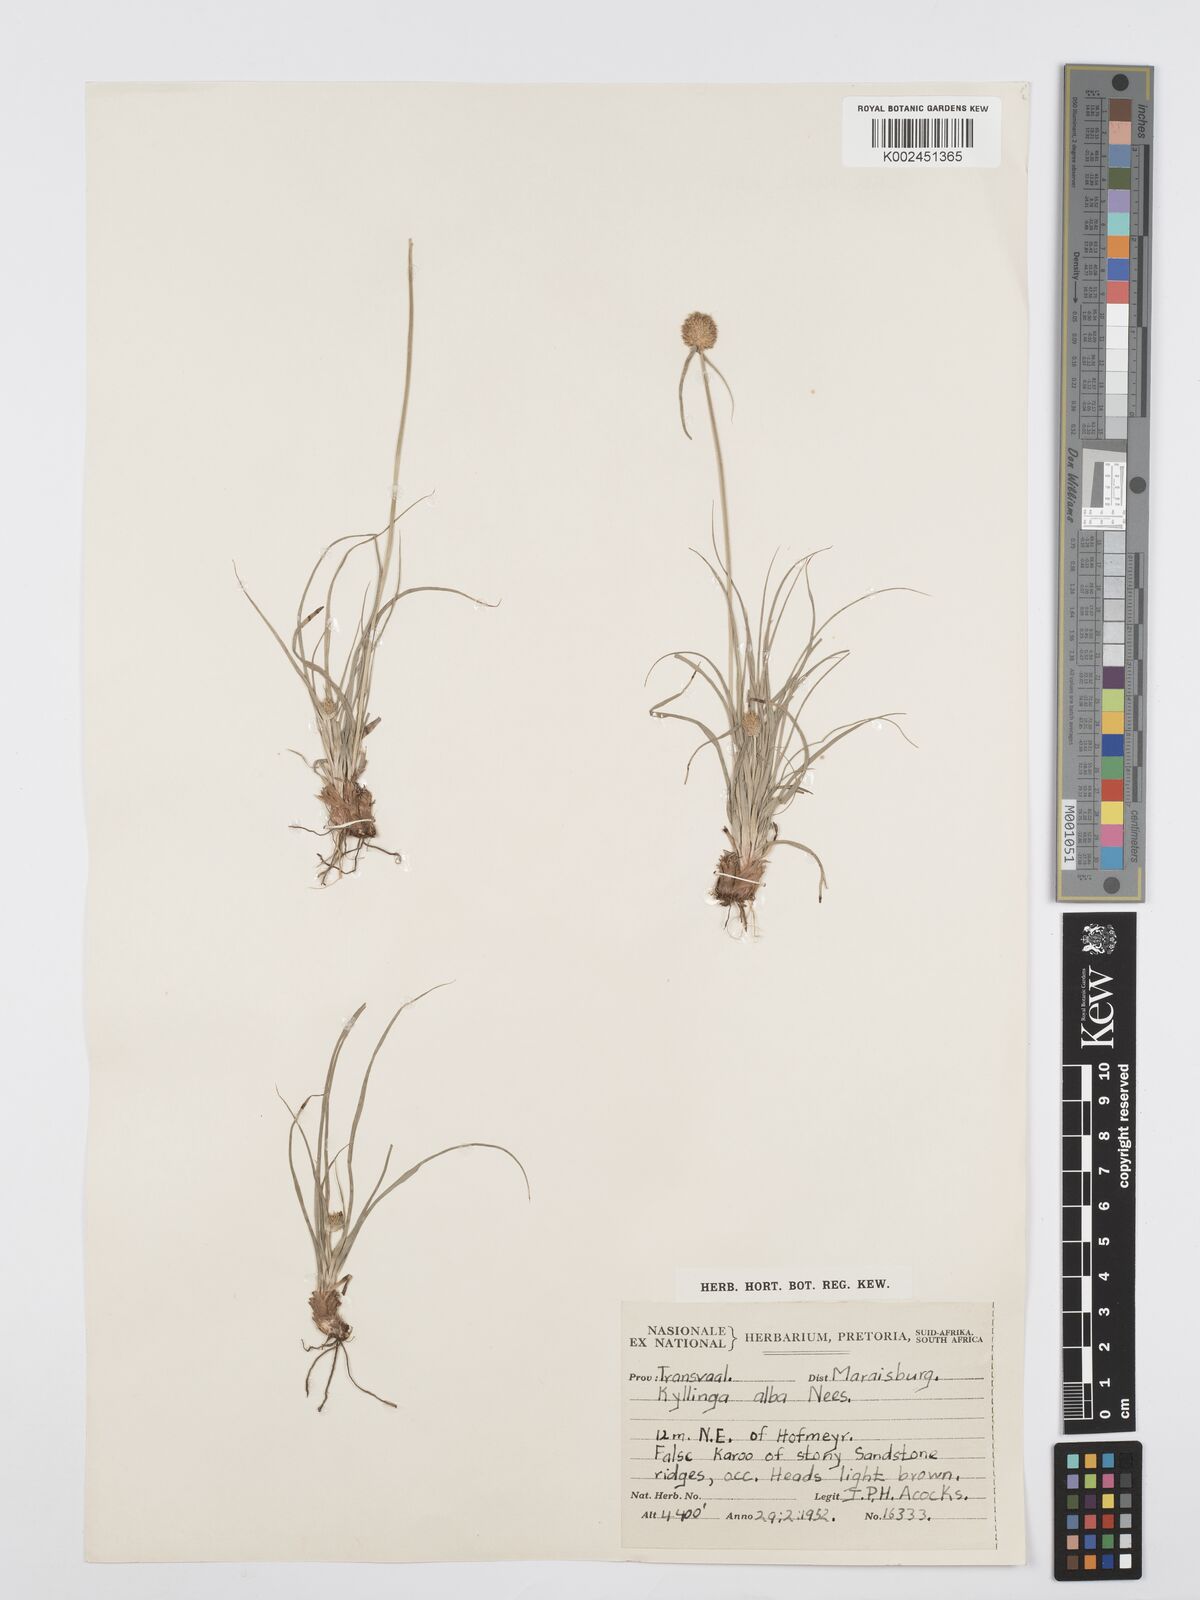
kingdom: Plantae
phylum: Tracheophyta
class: Liliopsida
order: Poales
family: Cyperaceae
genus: Cyperus
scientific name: Cyperus
